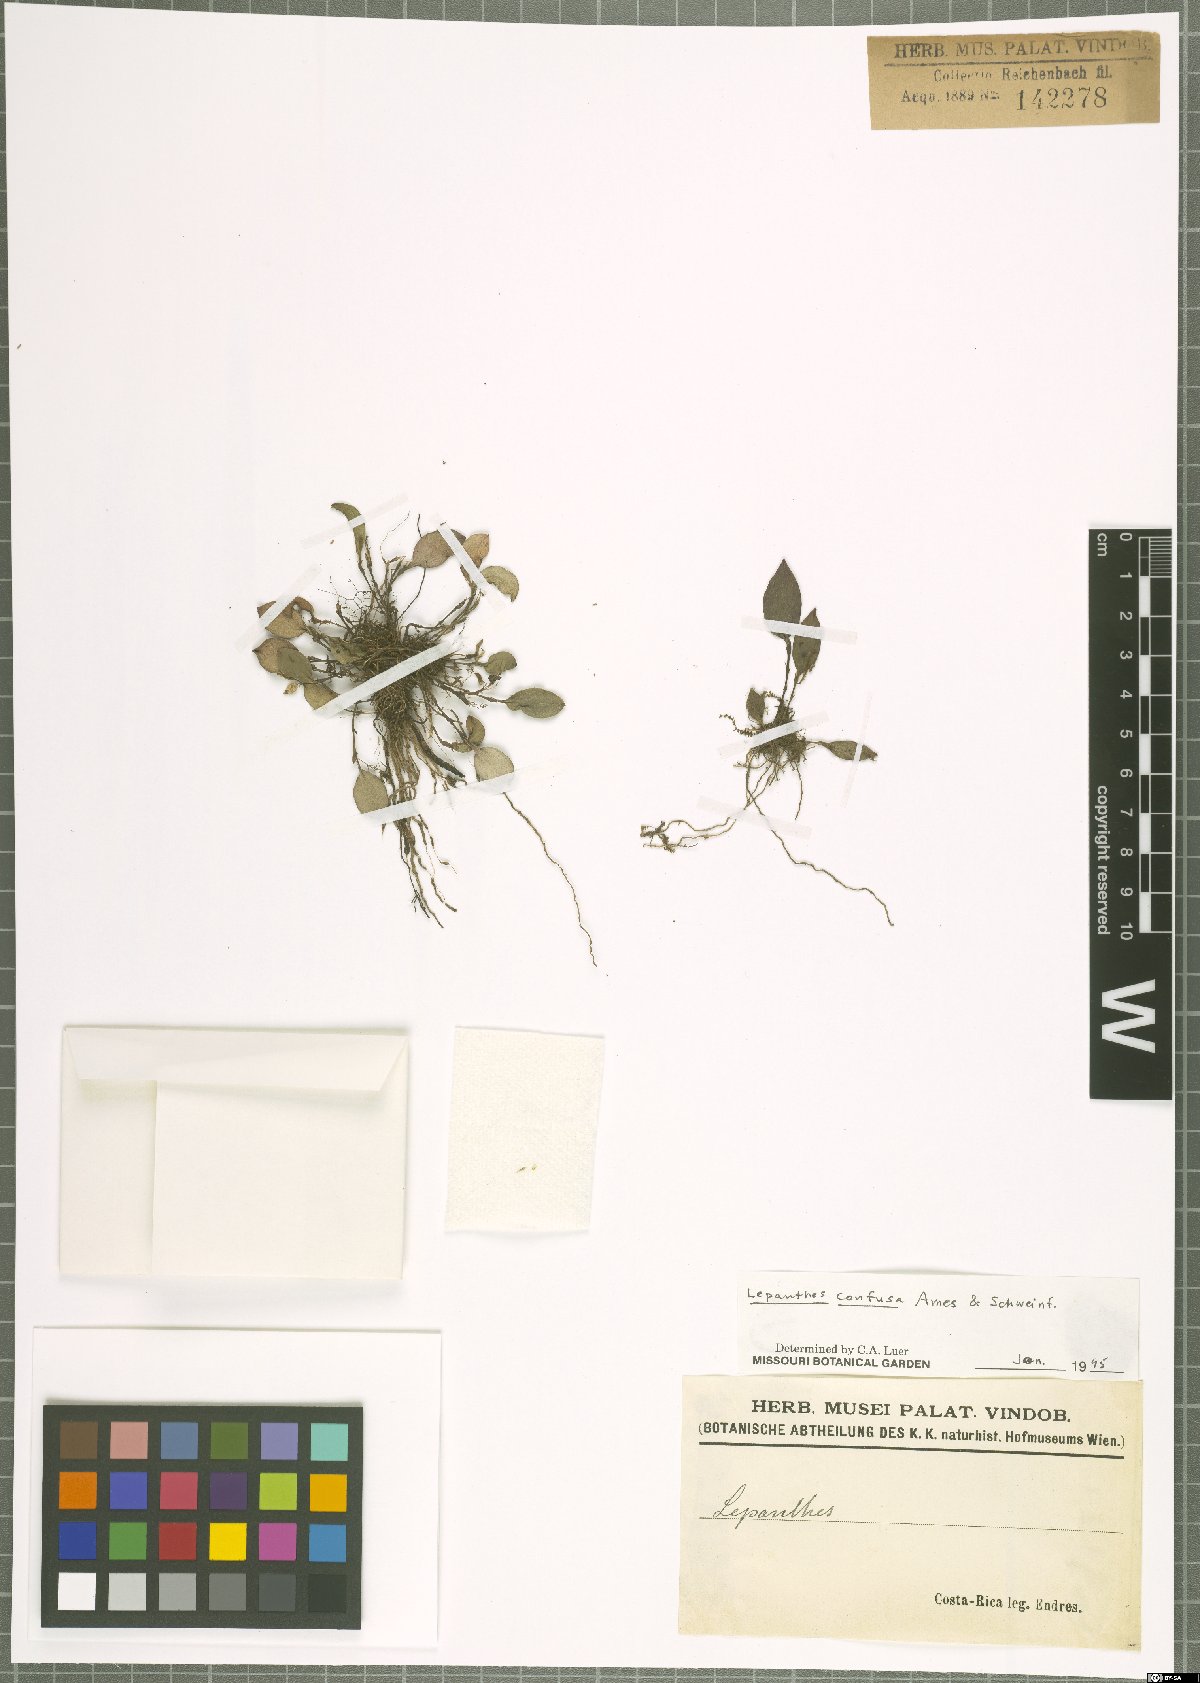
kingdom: Plantae
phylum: Tracheophyta
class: Liliopsida
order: Asparagales
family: Orchidaceae
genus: Lepanthes
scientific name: Lepanthes confusa
